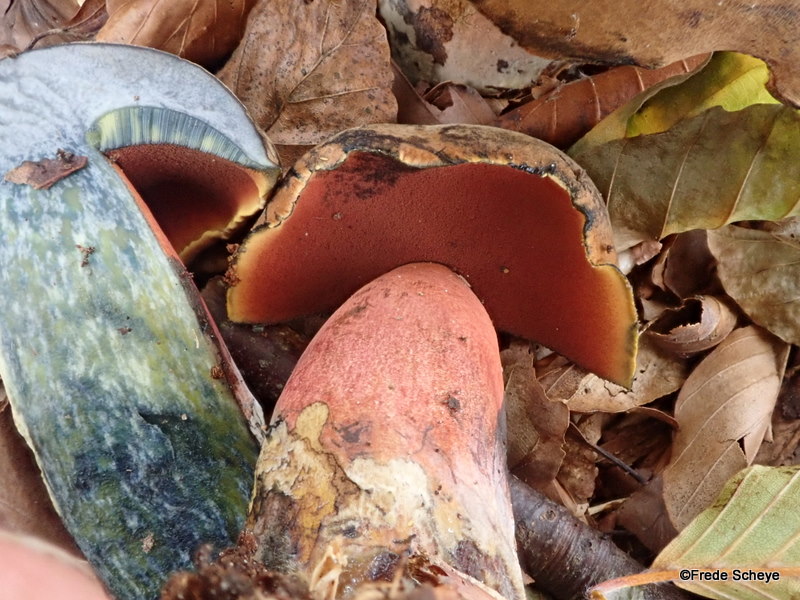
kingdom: Fungi
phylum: Basidiomycota
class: Agaricomycetes
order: Boletales
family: Boletaceae
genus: Neoboletus
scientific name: Neoboletus erythropus
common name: punktstokket indigorørhat
